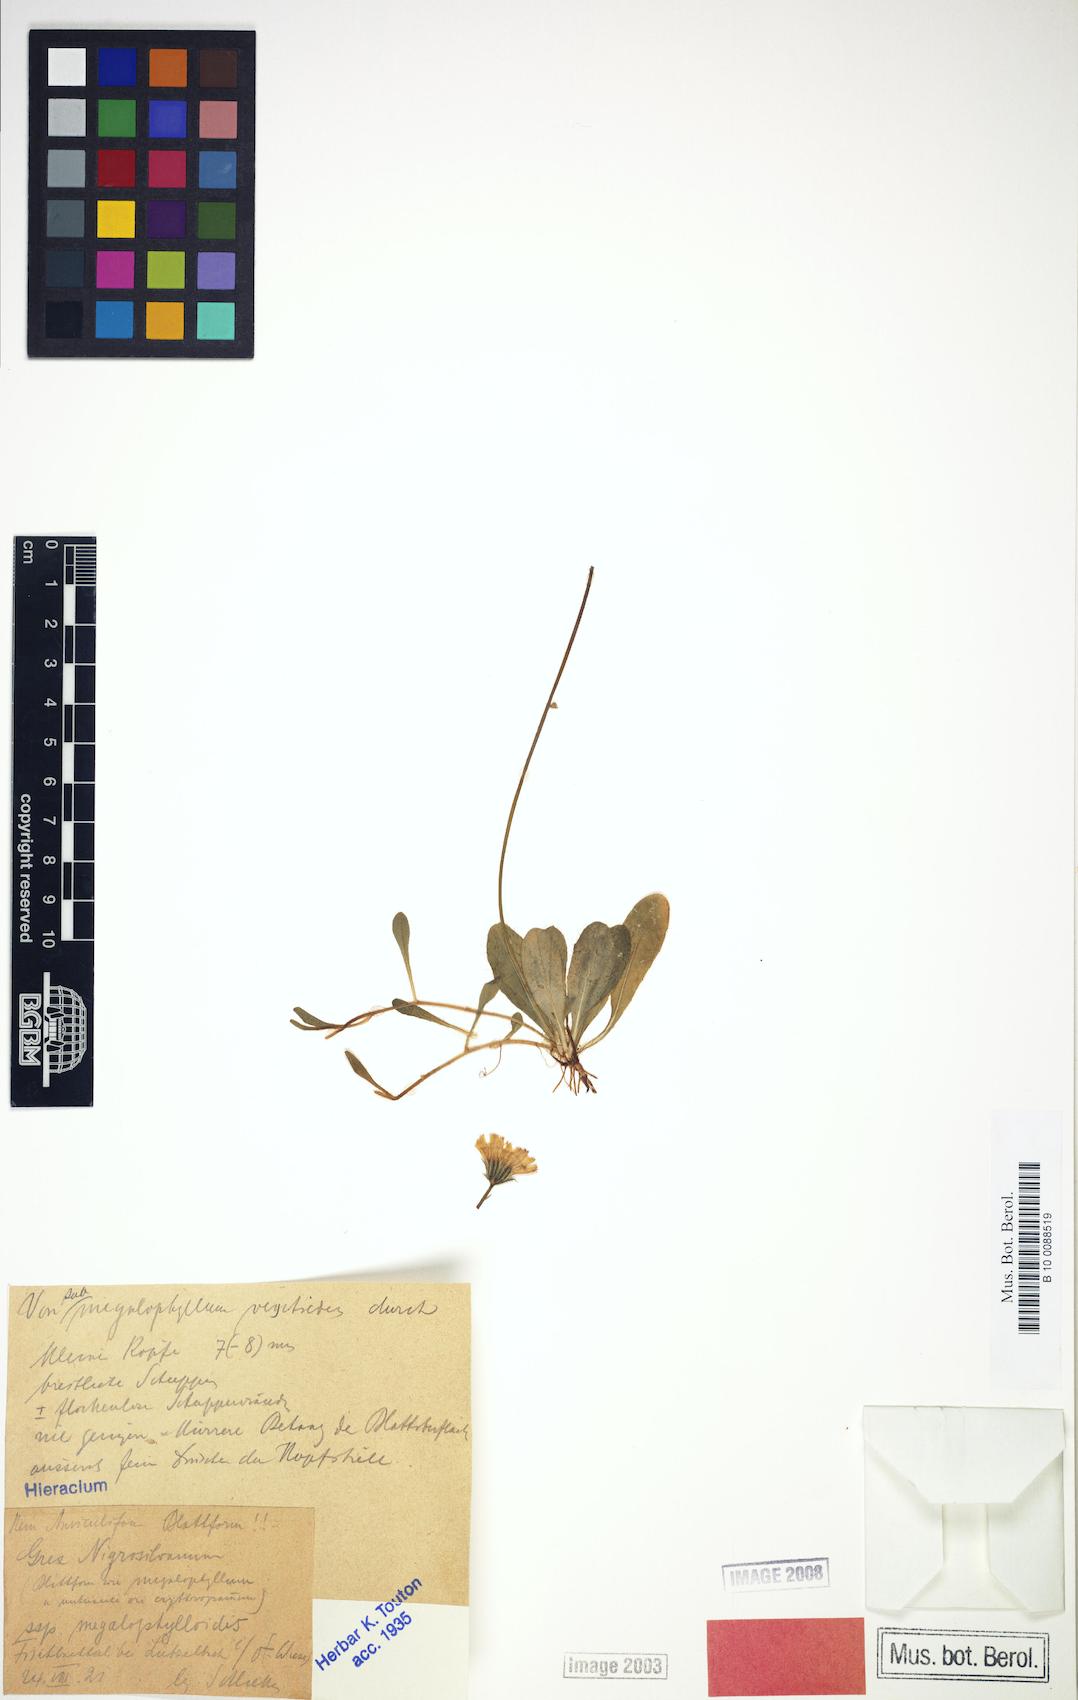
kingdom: Plantae
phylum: Tracheophyta
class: Magnoliopsida
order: Asterales
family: Asteraceae
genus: Pilosella
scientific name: Pilosella schultesii
